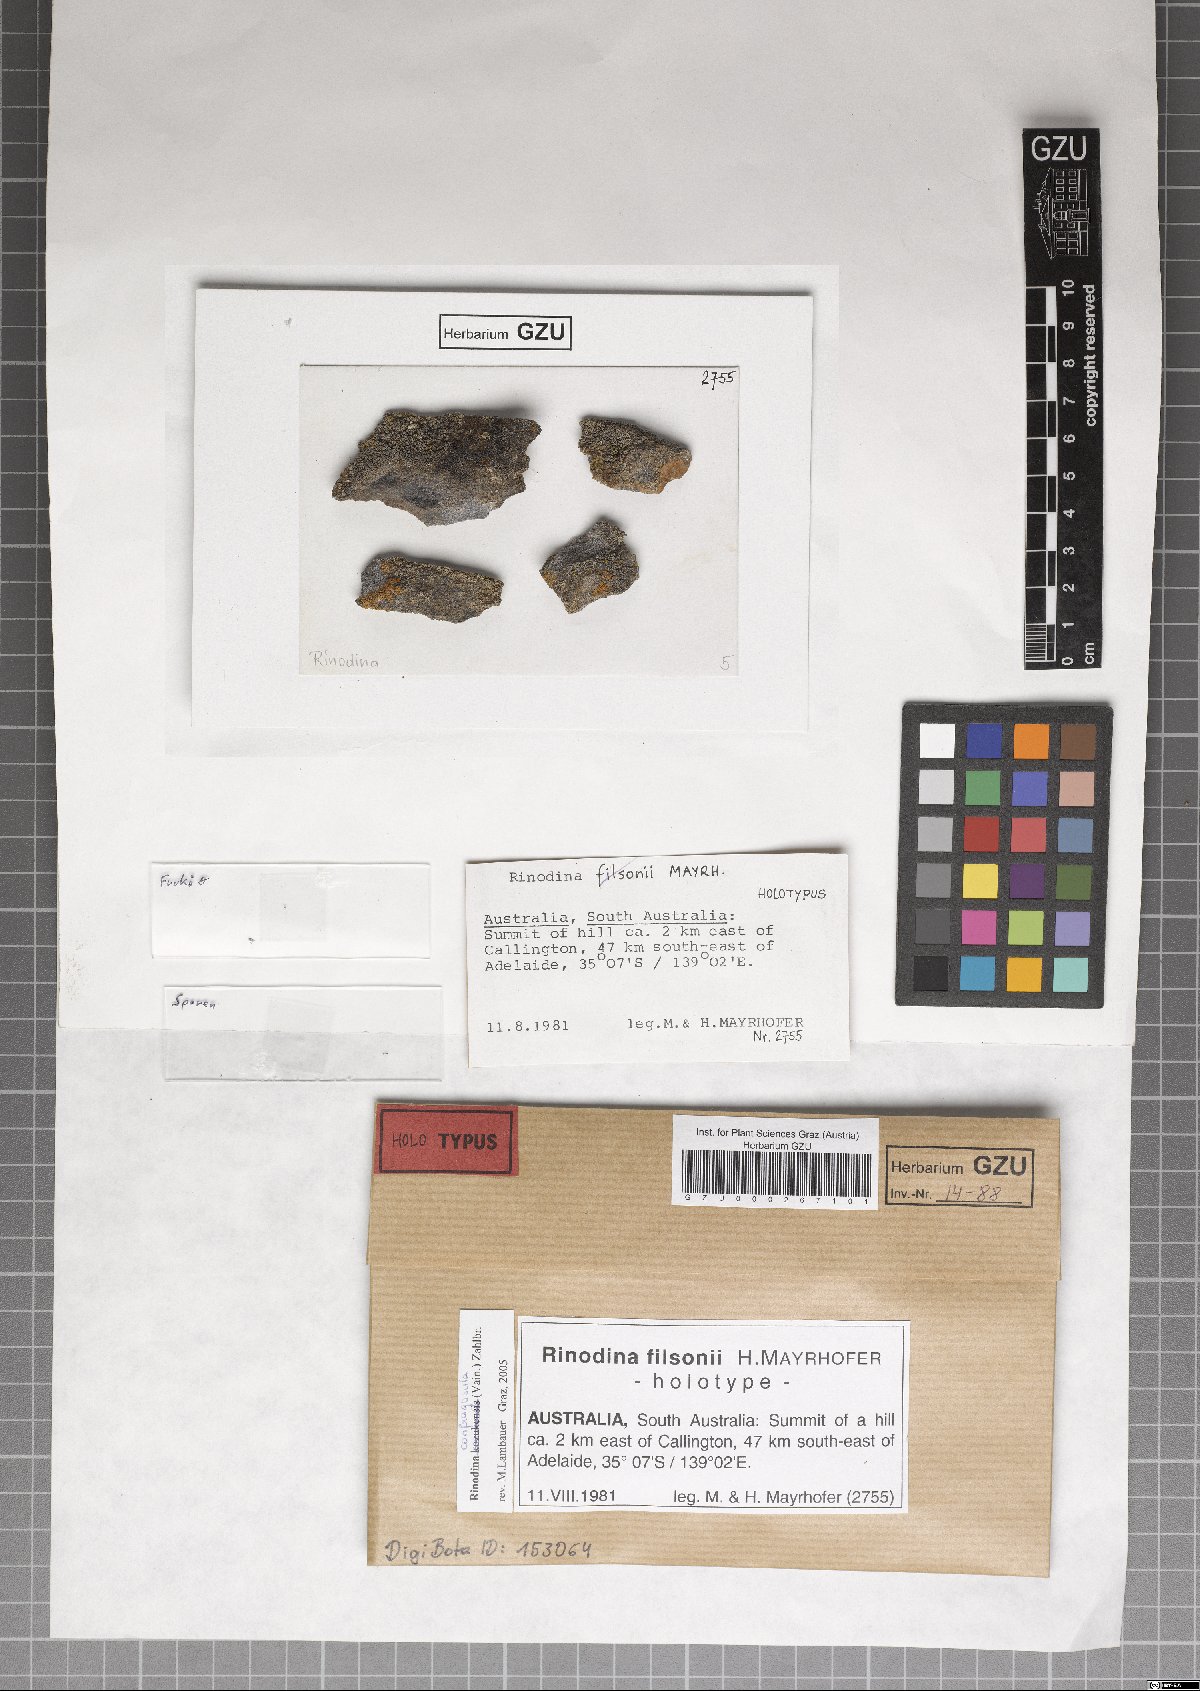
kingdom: Fungi
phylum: Ascomycota
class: Lecanoromycetes
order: Caliciales
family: Physciaceae
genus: Rinodina
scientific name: Rinodina filsonii
